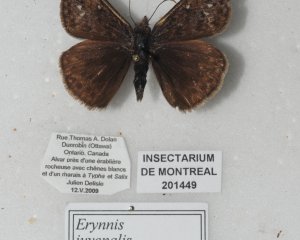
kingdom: Animalia
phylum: Arthropoda
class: Insecta
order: Lepidoptera
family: Hesperiidae
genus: Gesta
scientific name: Gesta
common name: Juvenal's Duskywing
